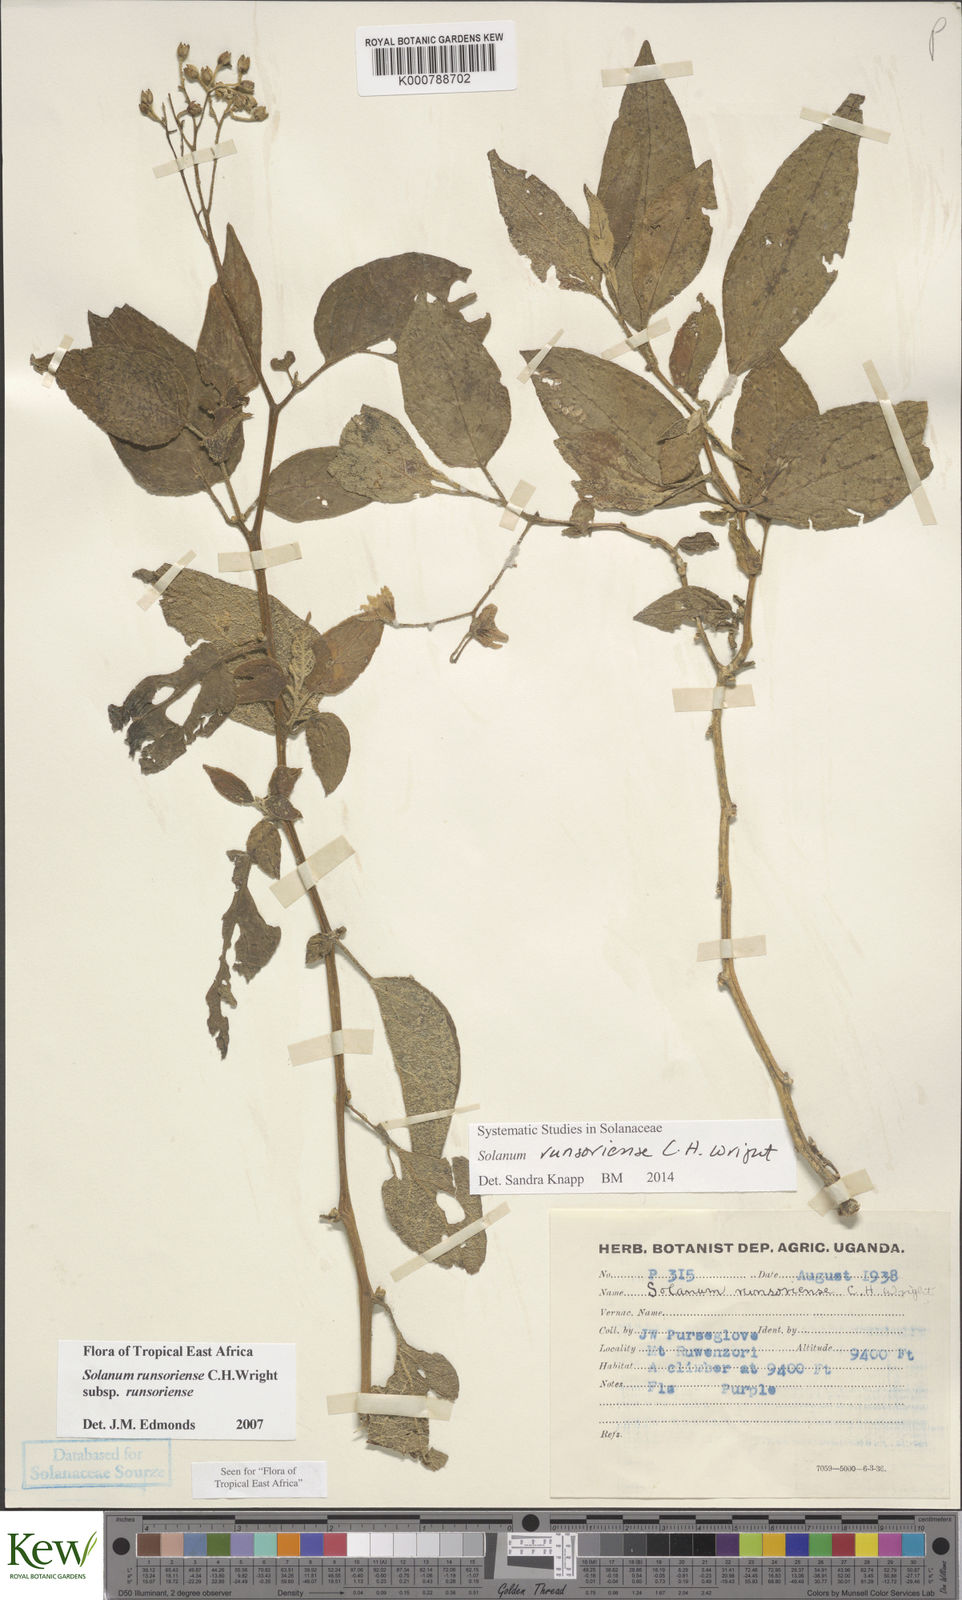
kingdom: Plantae
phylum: Tracheophyta
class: Magnoliopsida
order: Solanales
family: Solanaceae
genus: Solanum
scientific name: Solanum runsoriense
